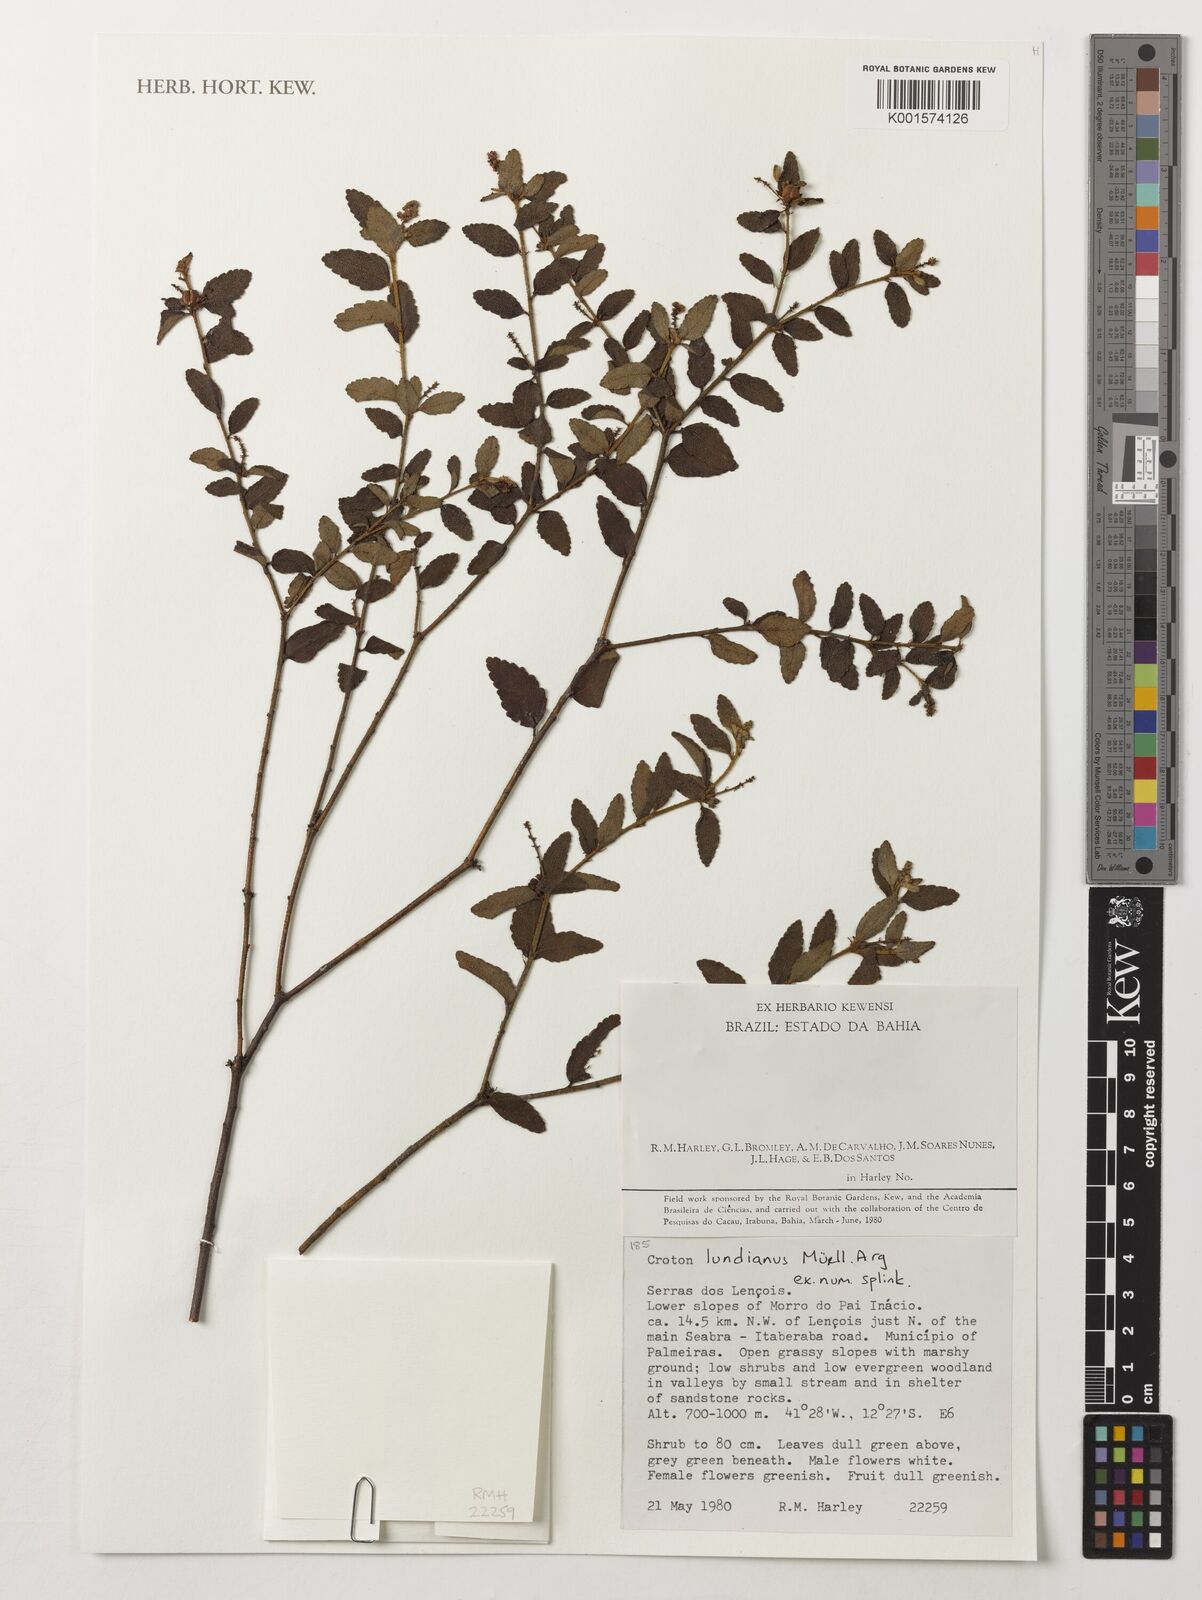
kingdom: Plantae
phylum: Tracheophyta
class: Magnoliopsida
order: Malpighiales
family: Euphorbiaceae
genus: Croton
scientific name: Croton lundianus
